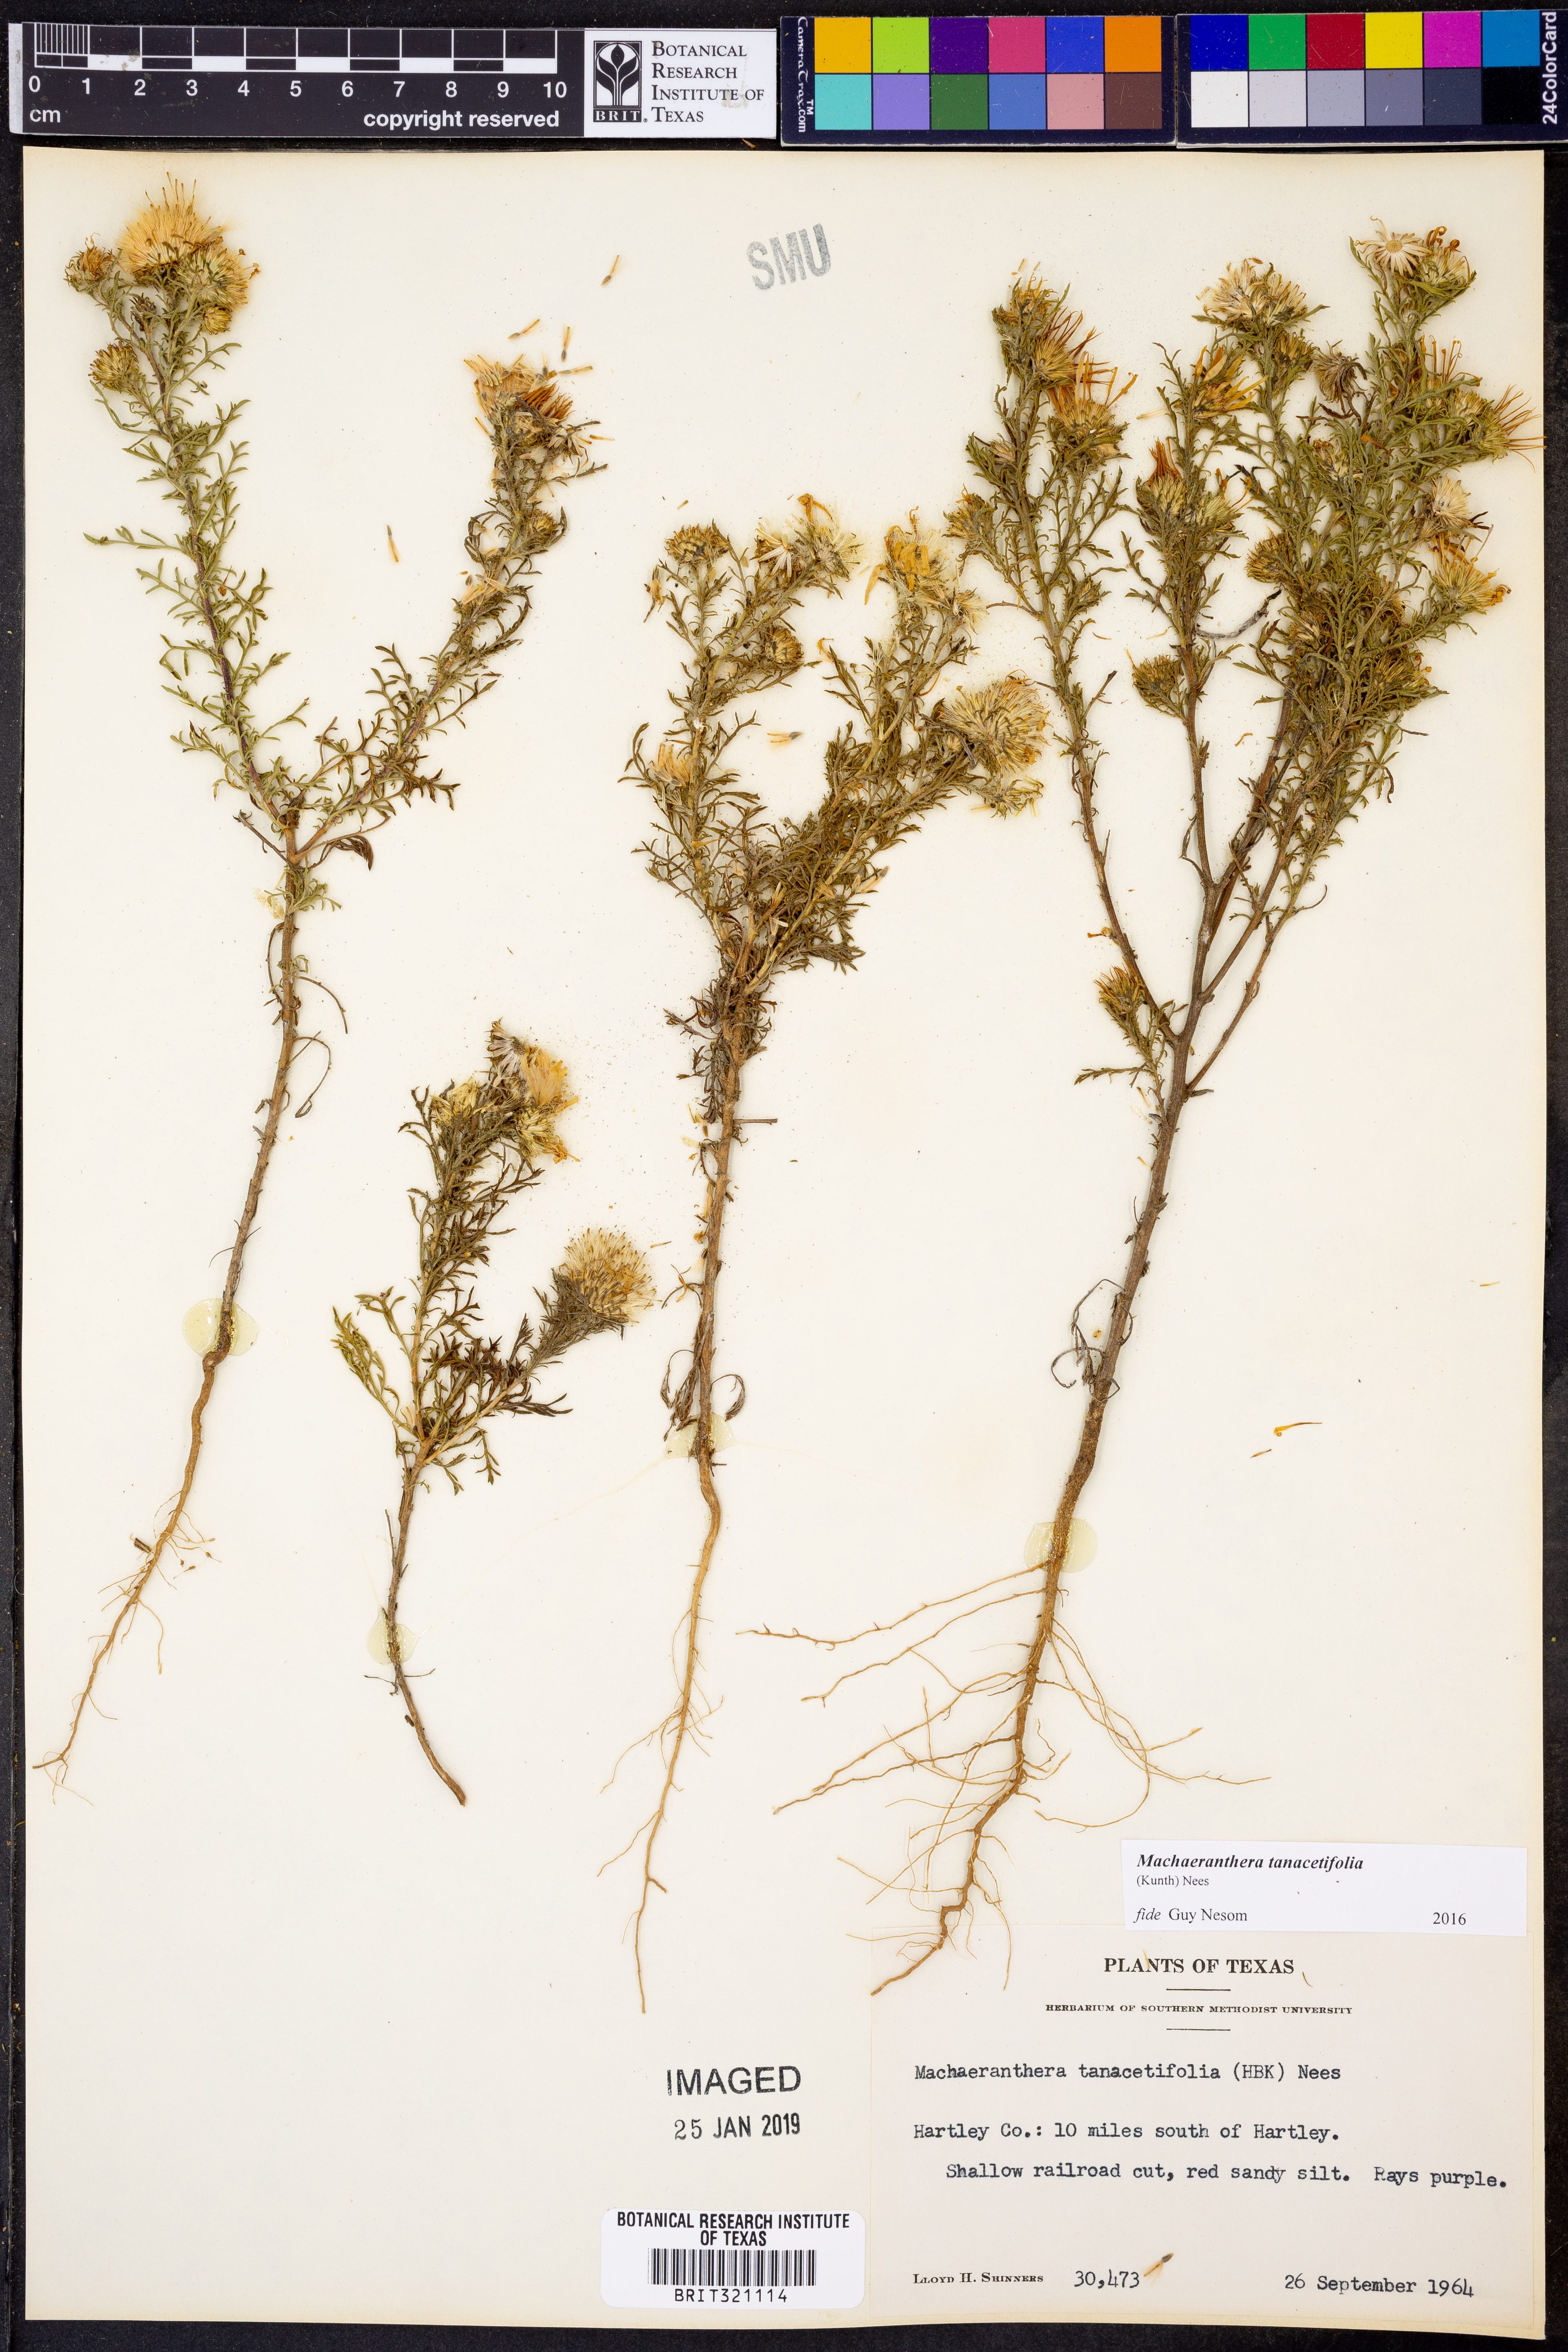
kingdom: Plantae
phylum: Tracheophyta
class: Magnoliopsida
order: Asterales
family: Asteraceae
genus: Machaeranthera
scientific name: Machaeranthera tanacetifolia
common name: Tansy-aster
